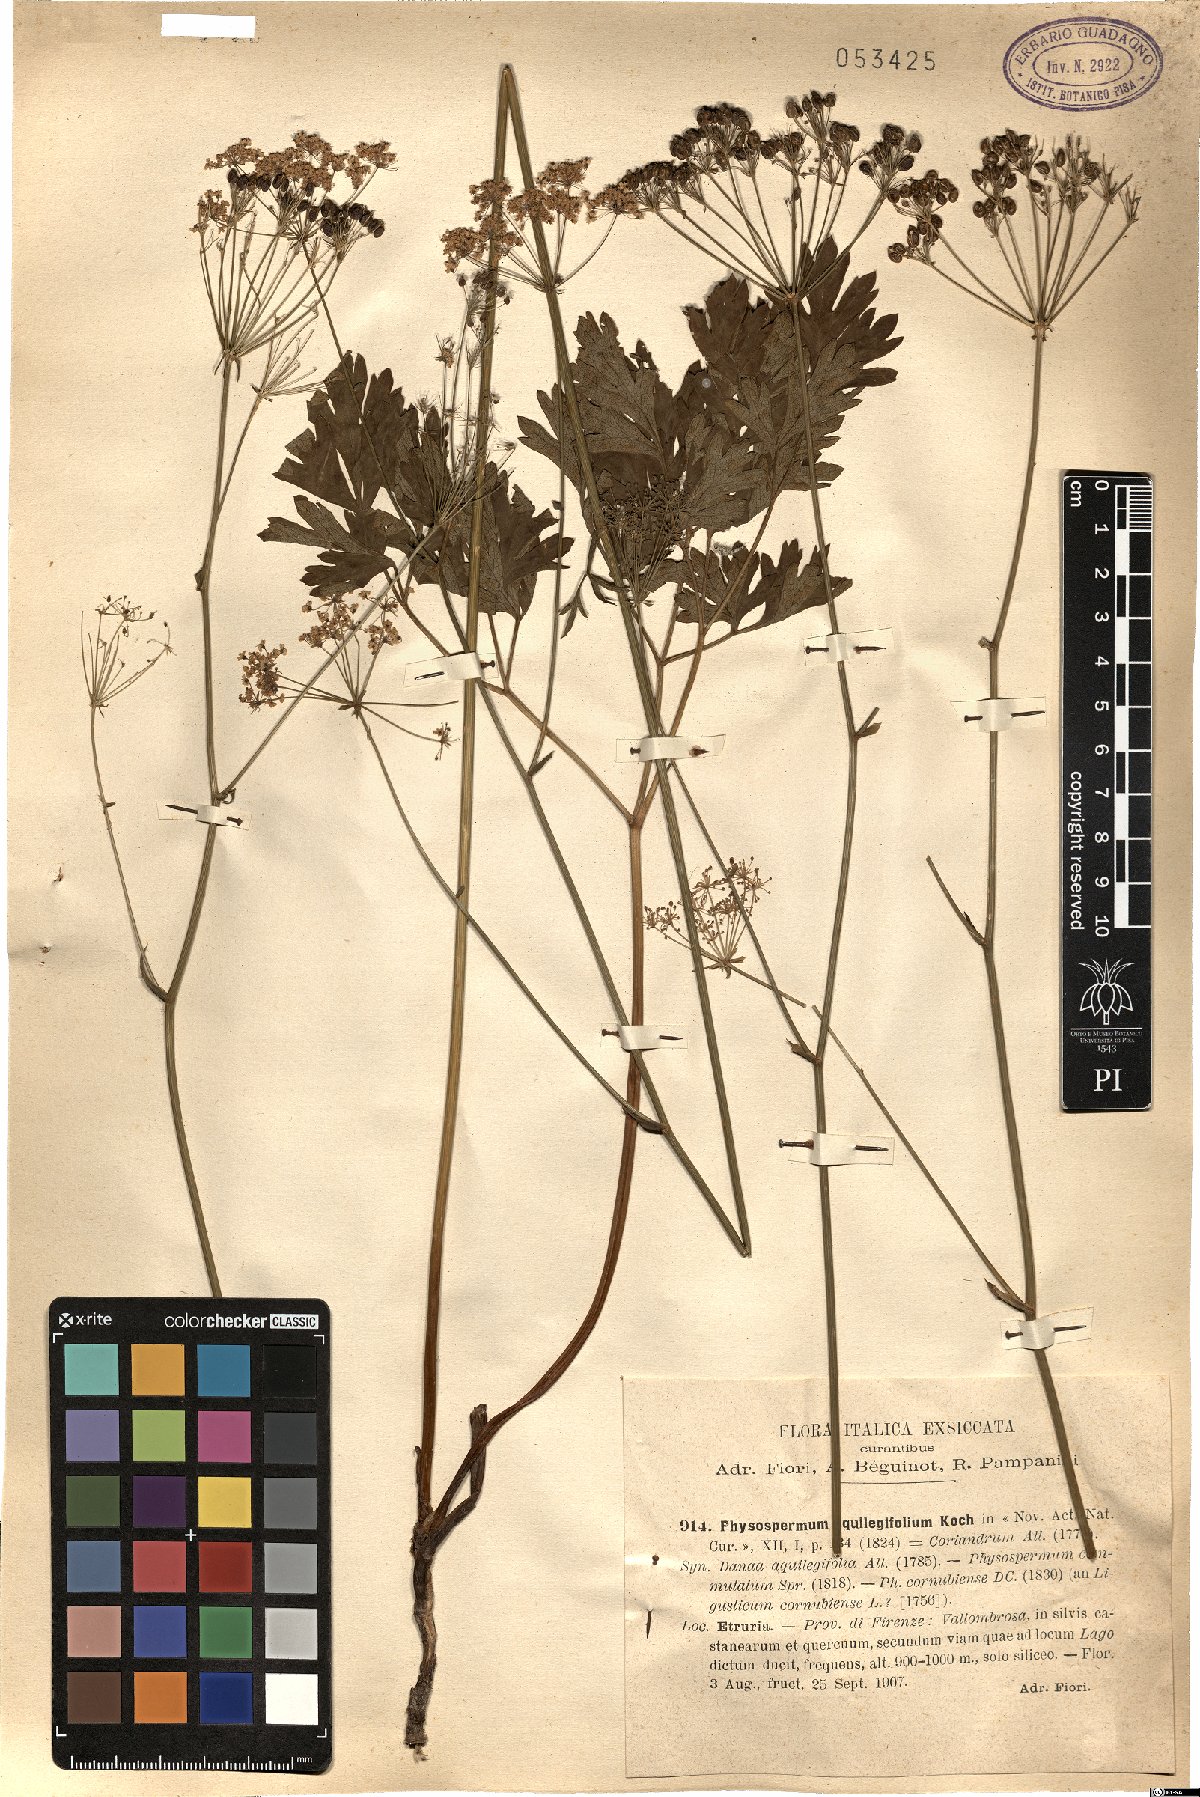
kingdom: Plantae
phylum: Tracheophyta
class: Magnoliopsida
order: Apiales
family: Apiaceae
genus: Physospermum
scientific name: Physospermum cornubiense
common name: Bladderseed
